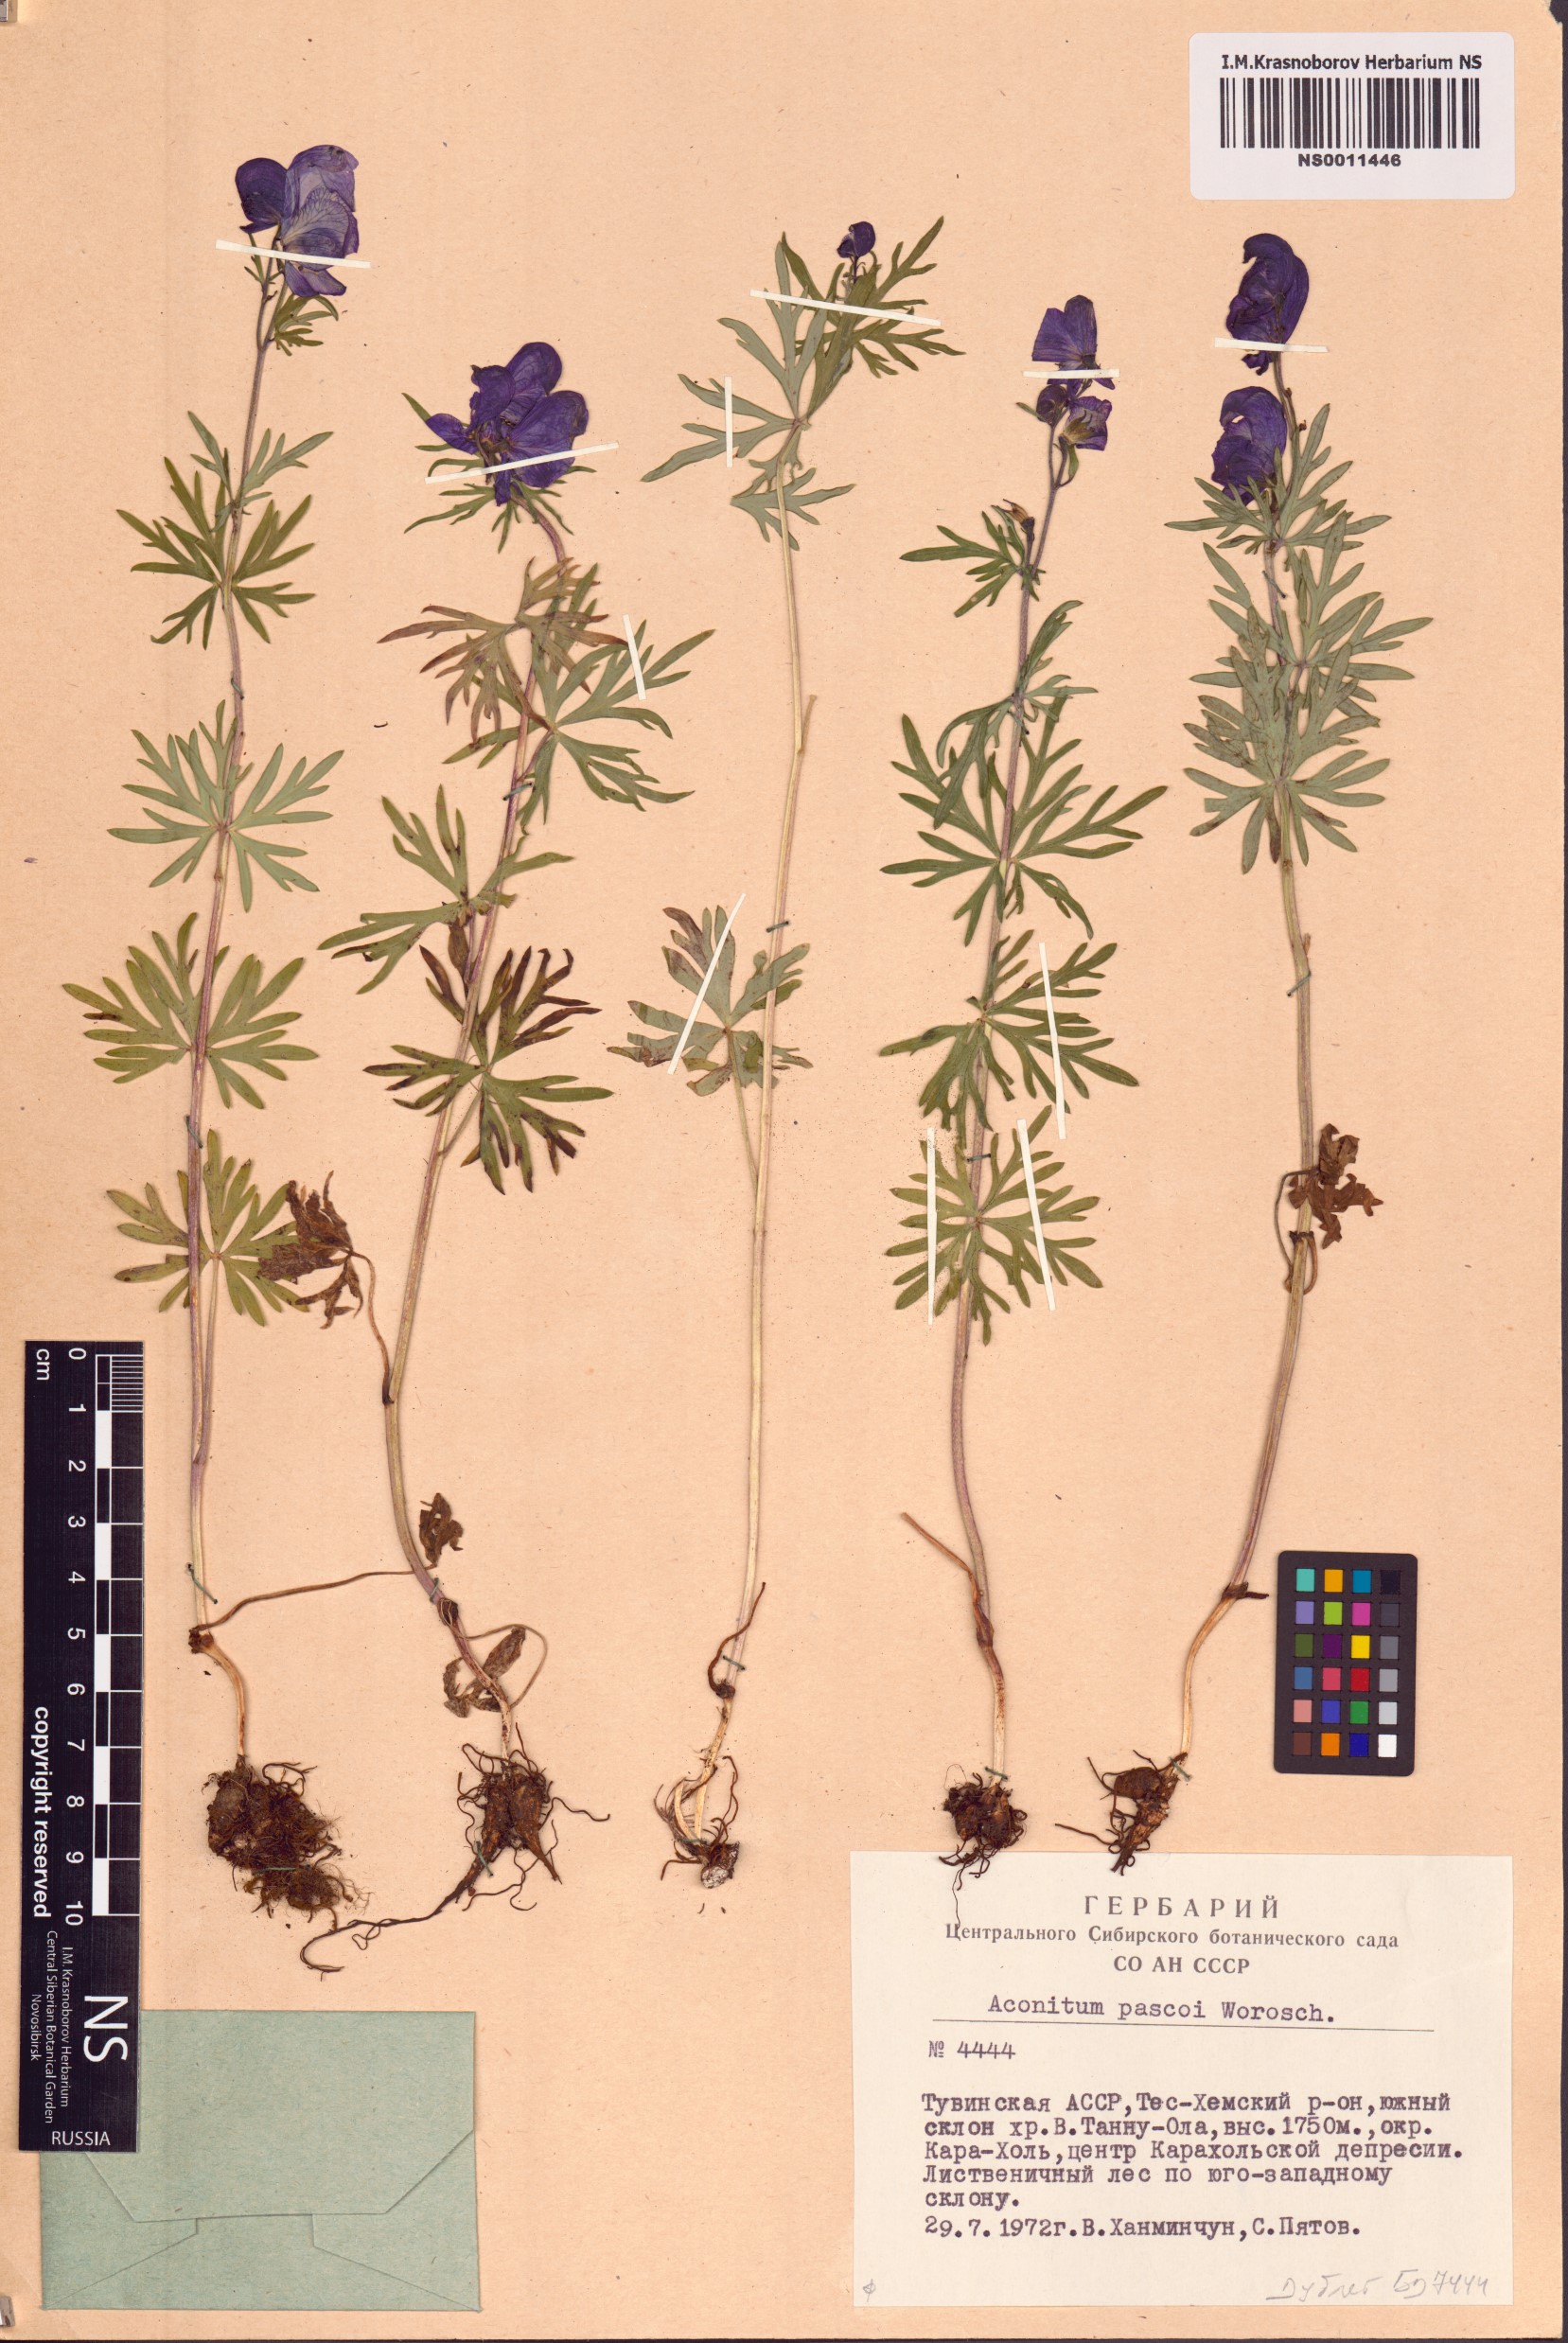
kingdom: Plantae
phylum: Tracheophyta
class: Magnoliopsida
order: Ranunculales
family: Ranunculaceae
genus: Aconitum
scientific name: Aconitum pascoi
